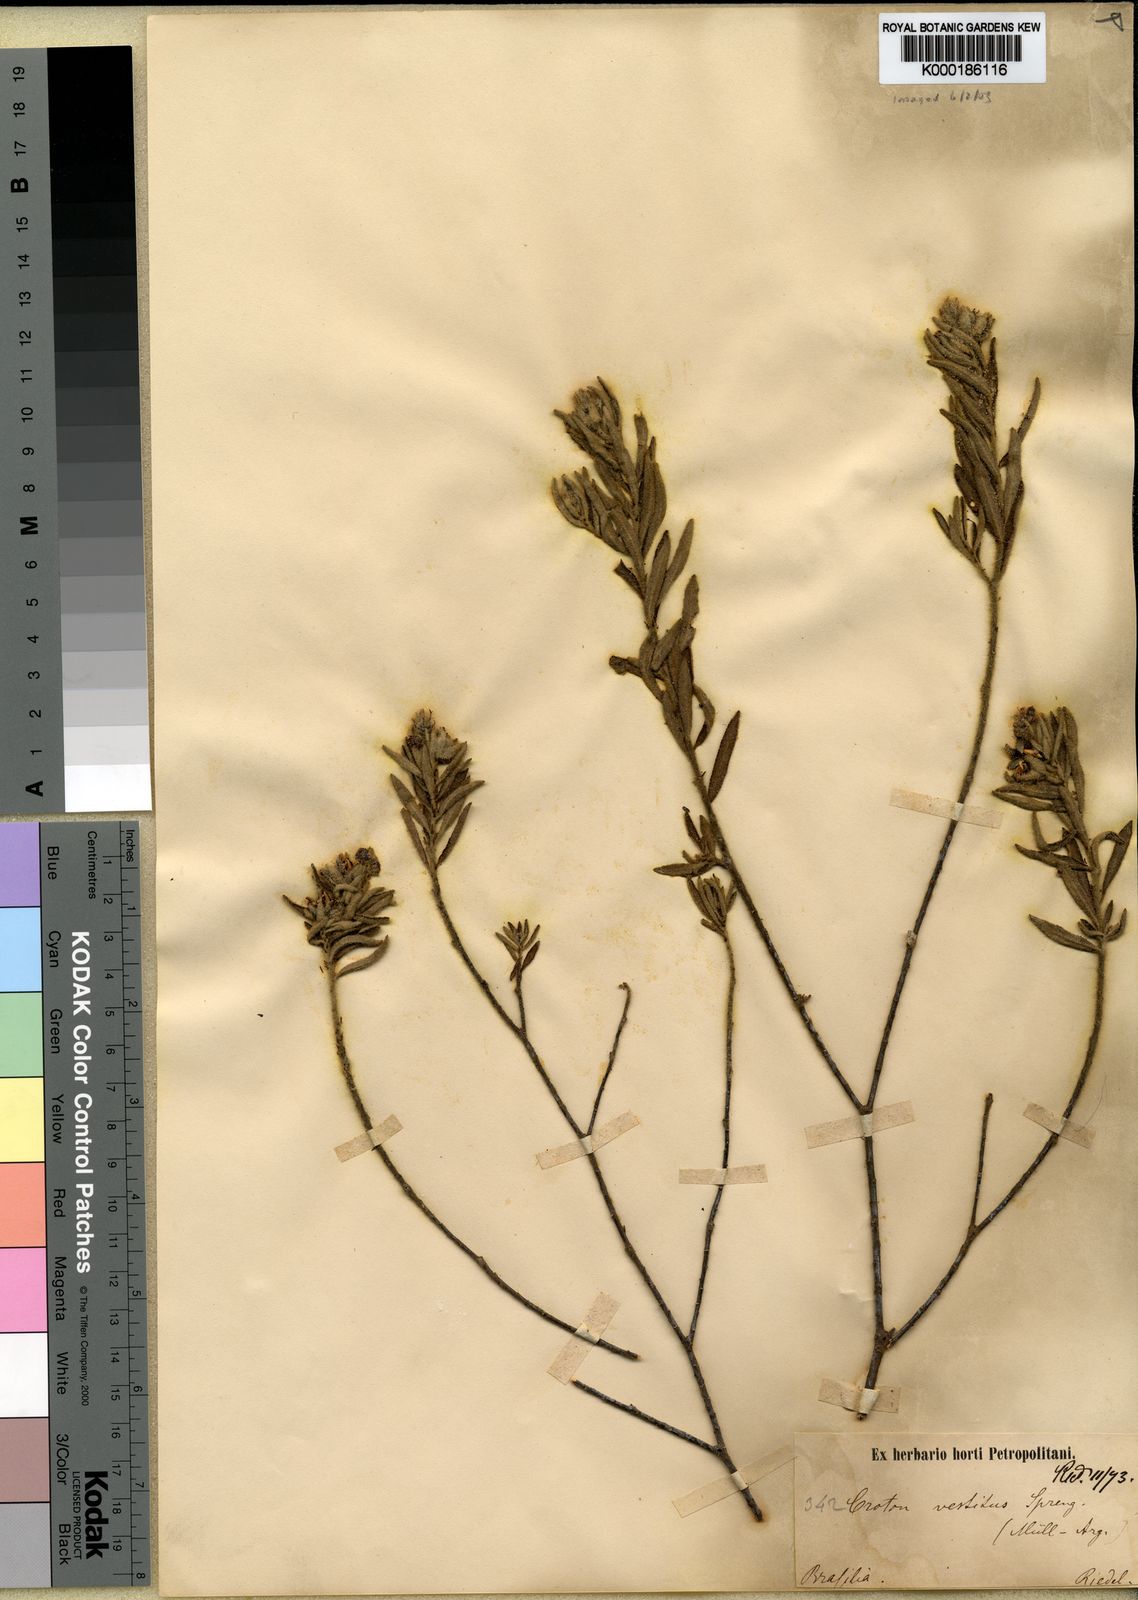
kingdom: Plantae
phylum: Tracheophyta
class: Magnoliopsida
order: Malpighiales
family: Euphorbiaceae
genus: Croton
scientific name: Croton vestitus
